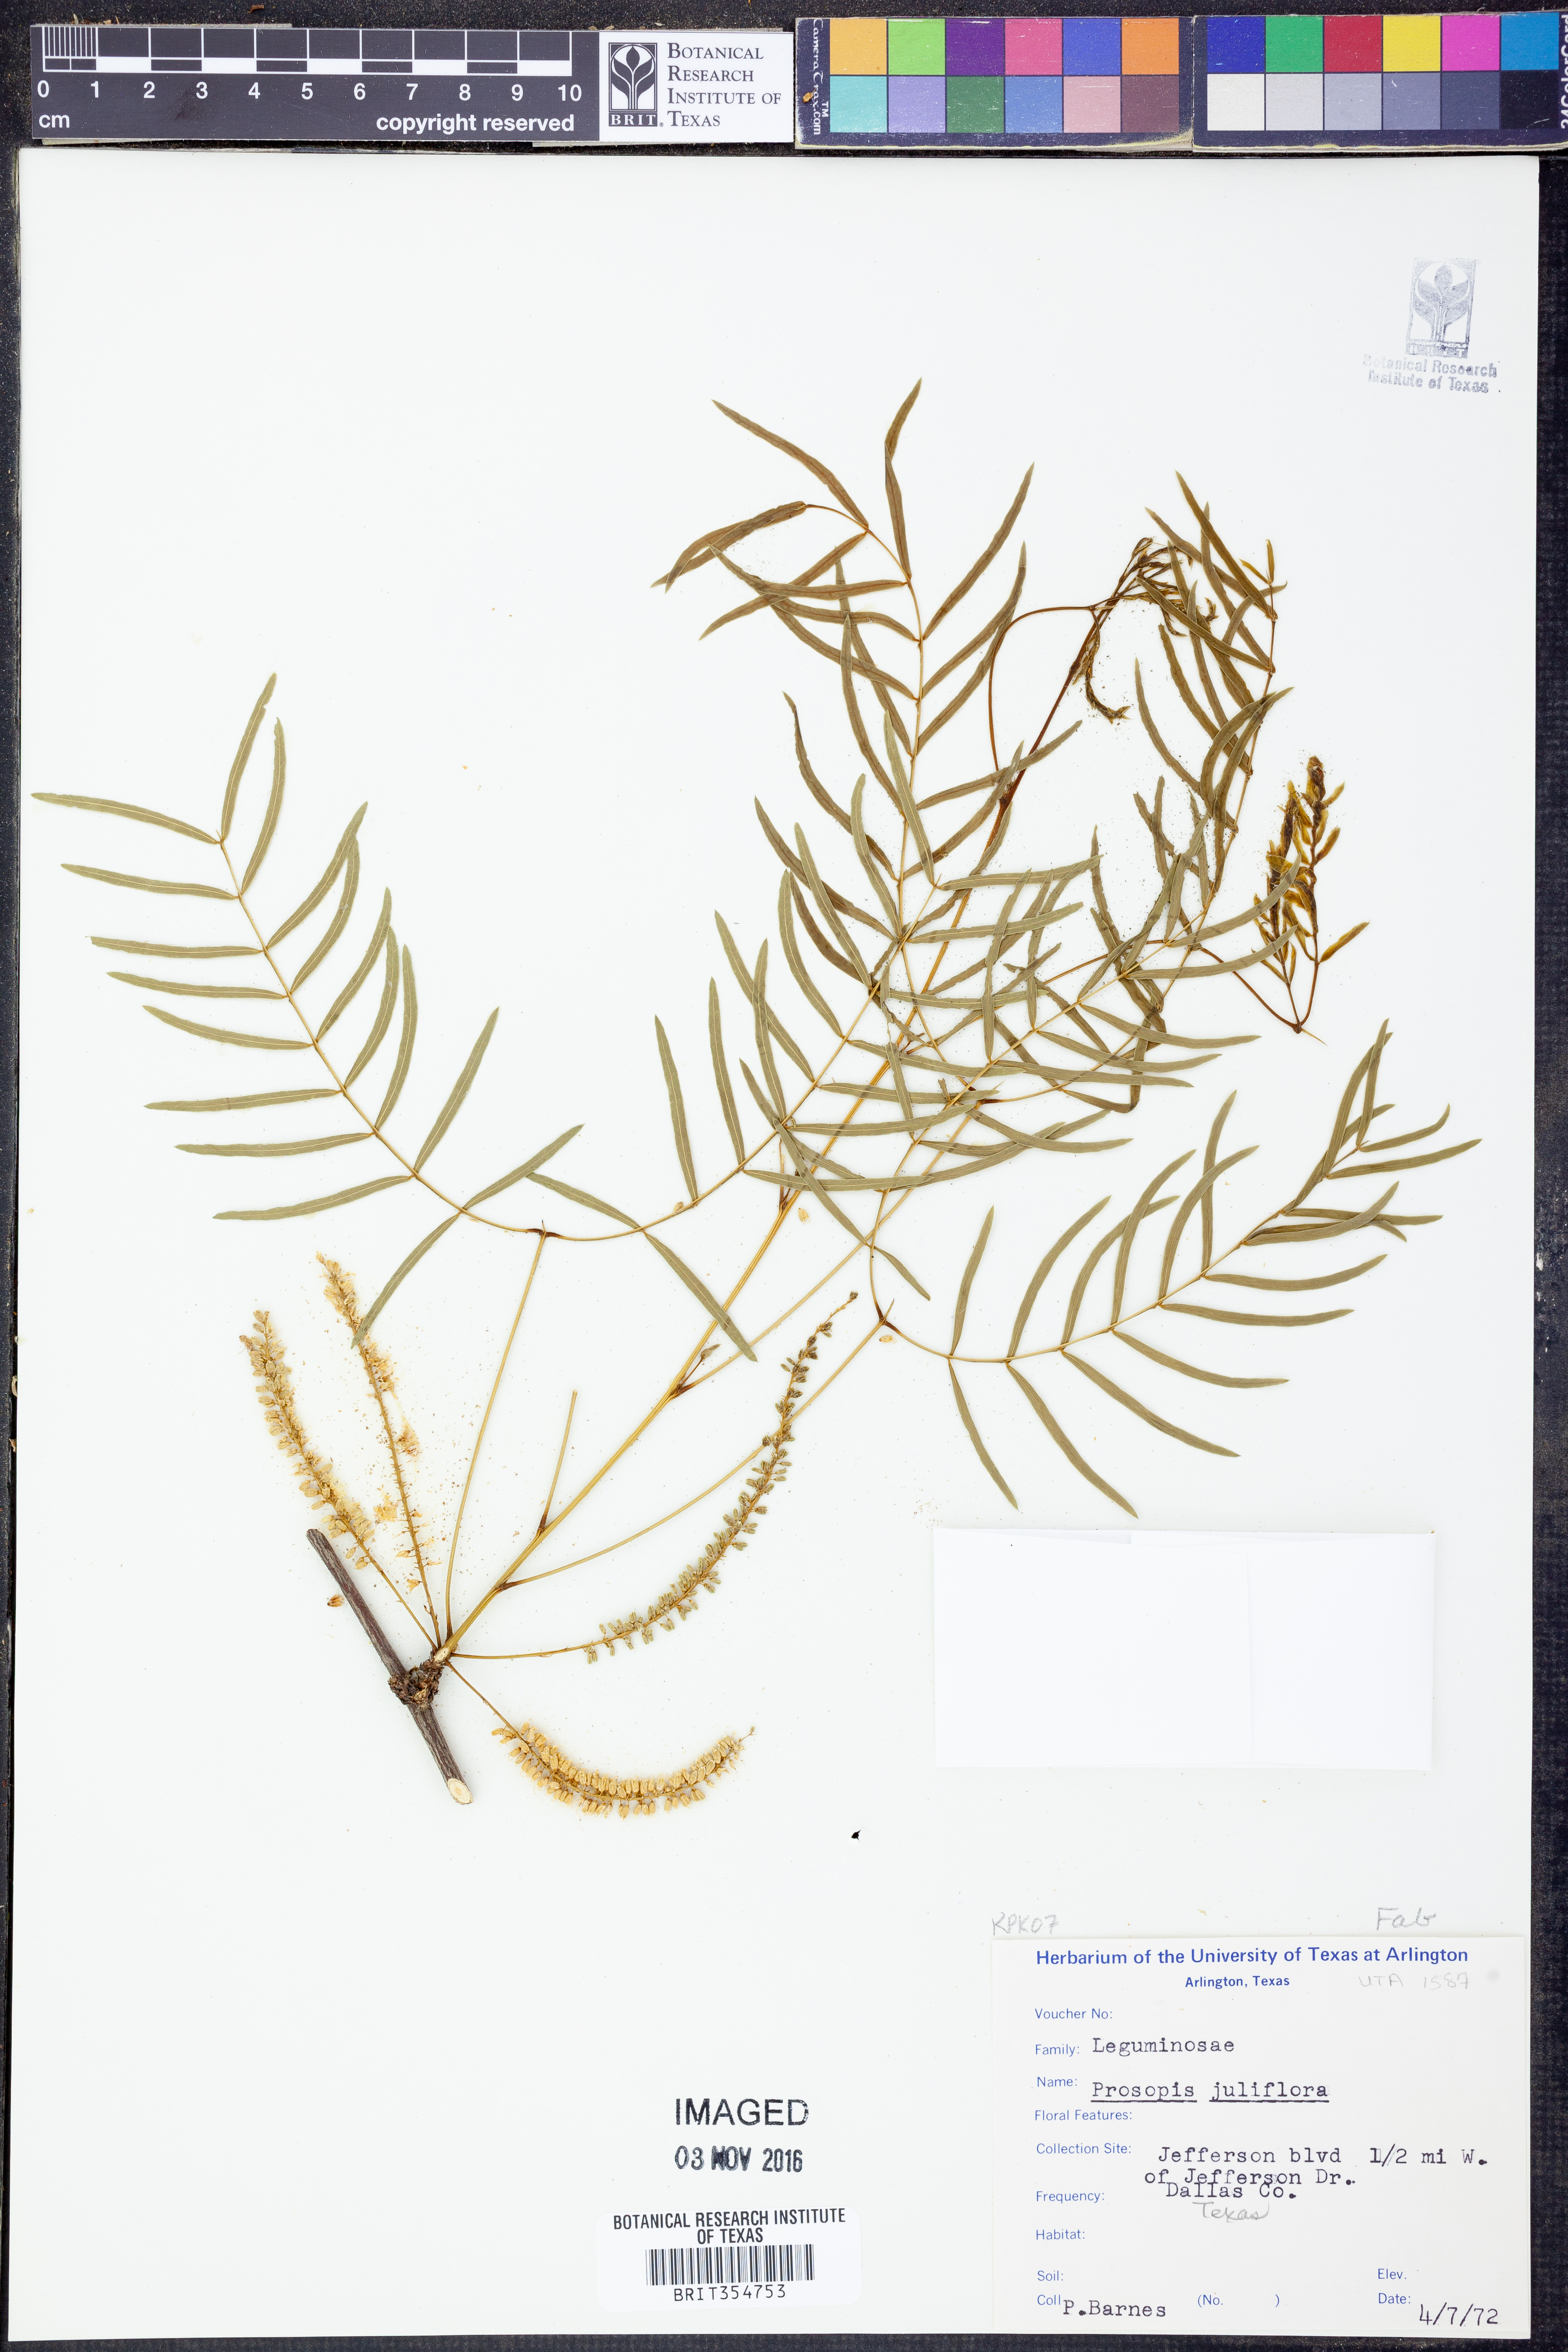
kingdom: Plantae
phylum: Tracheophyta
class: Magnoliopsida
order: Fabales
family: Fabaceae
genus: Prosopis
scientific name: Prosopis juliflora
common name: Mesquite
